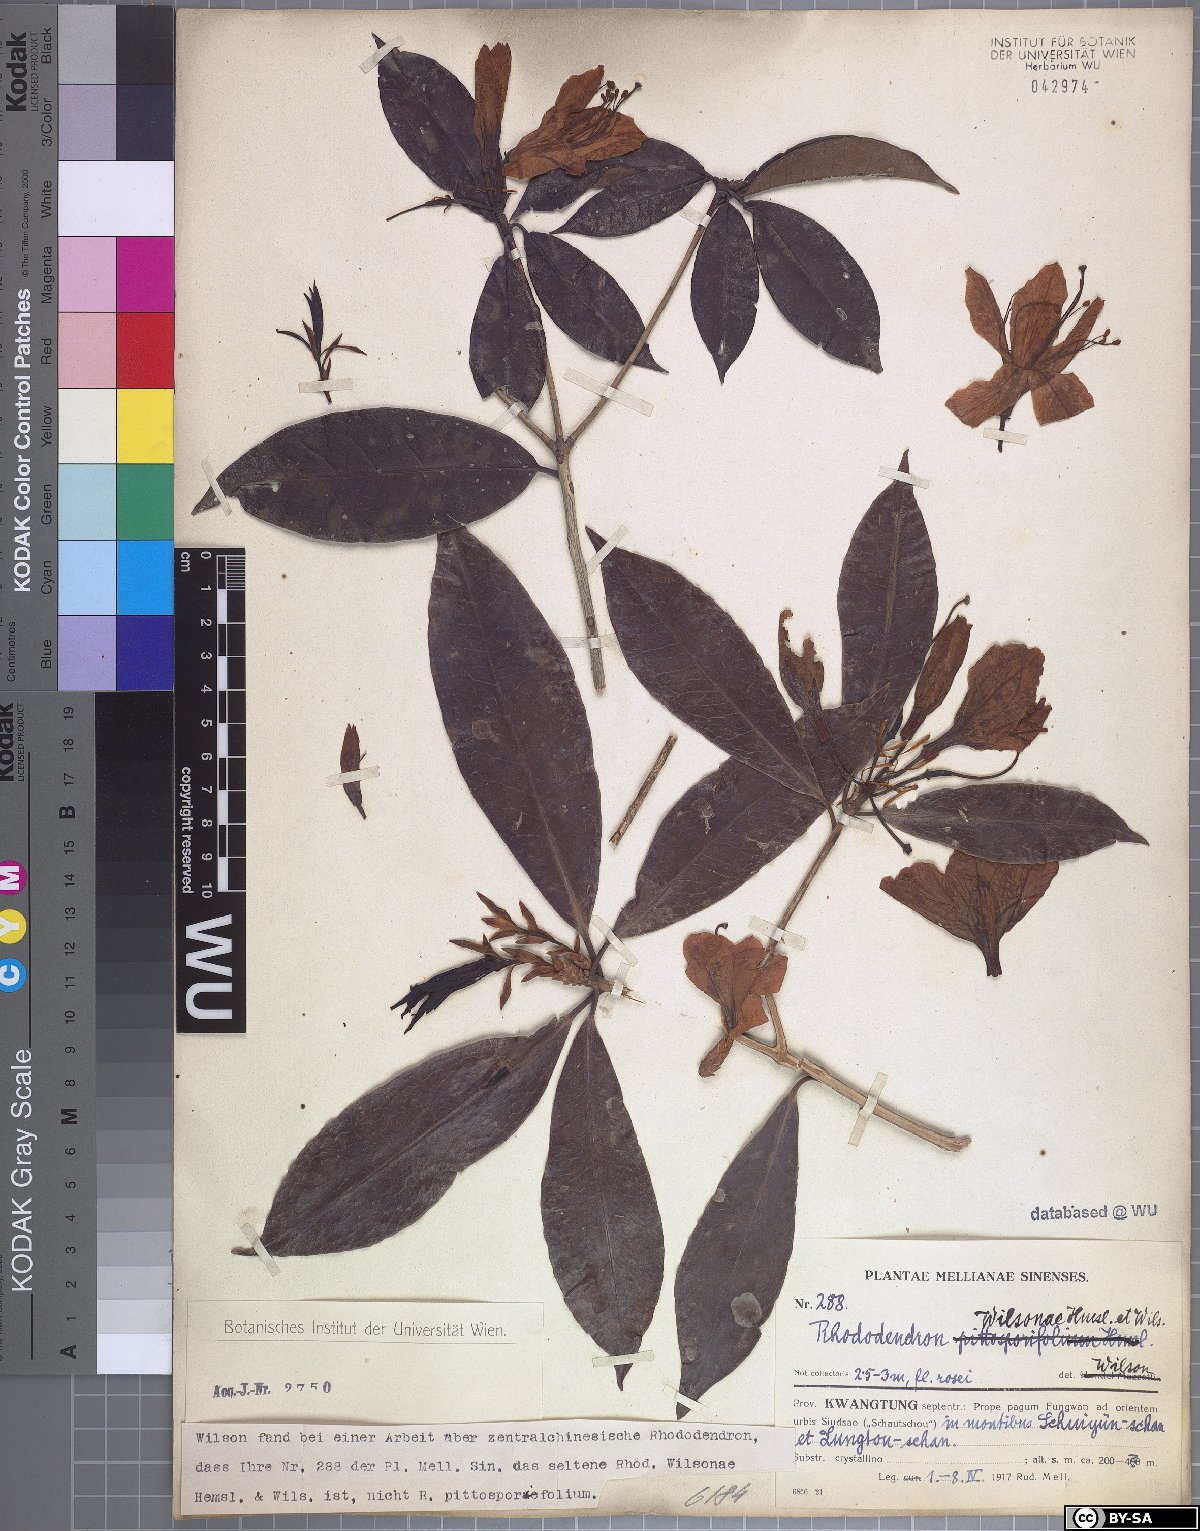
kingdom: Plantae
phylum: Tracheophyta
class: Magnoliopsida
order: Ericales
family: Ericaceae
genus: Rhododendron
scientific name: Rhododendron latoucheae
